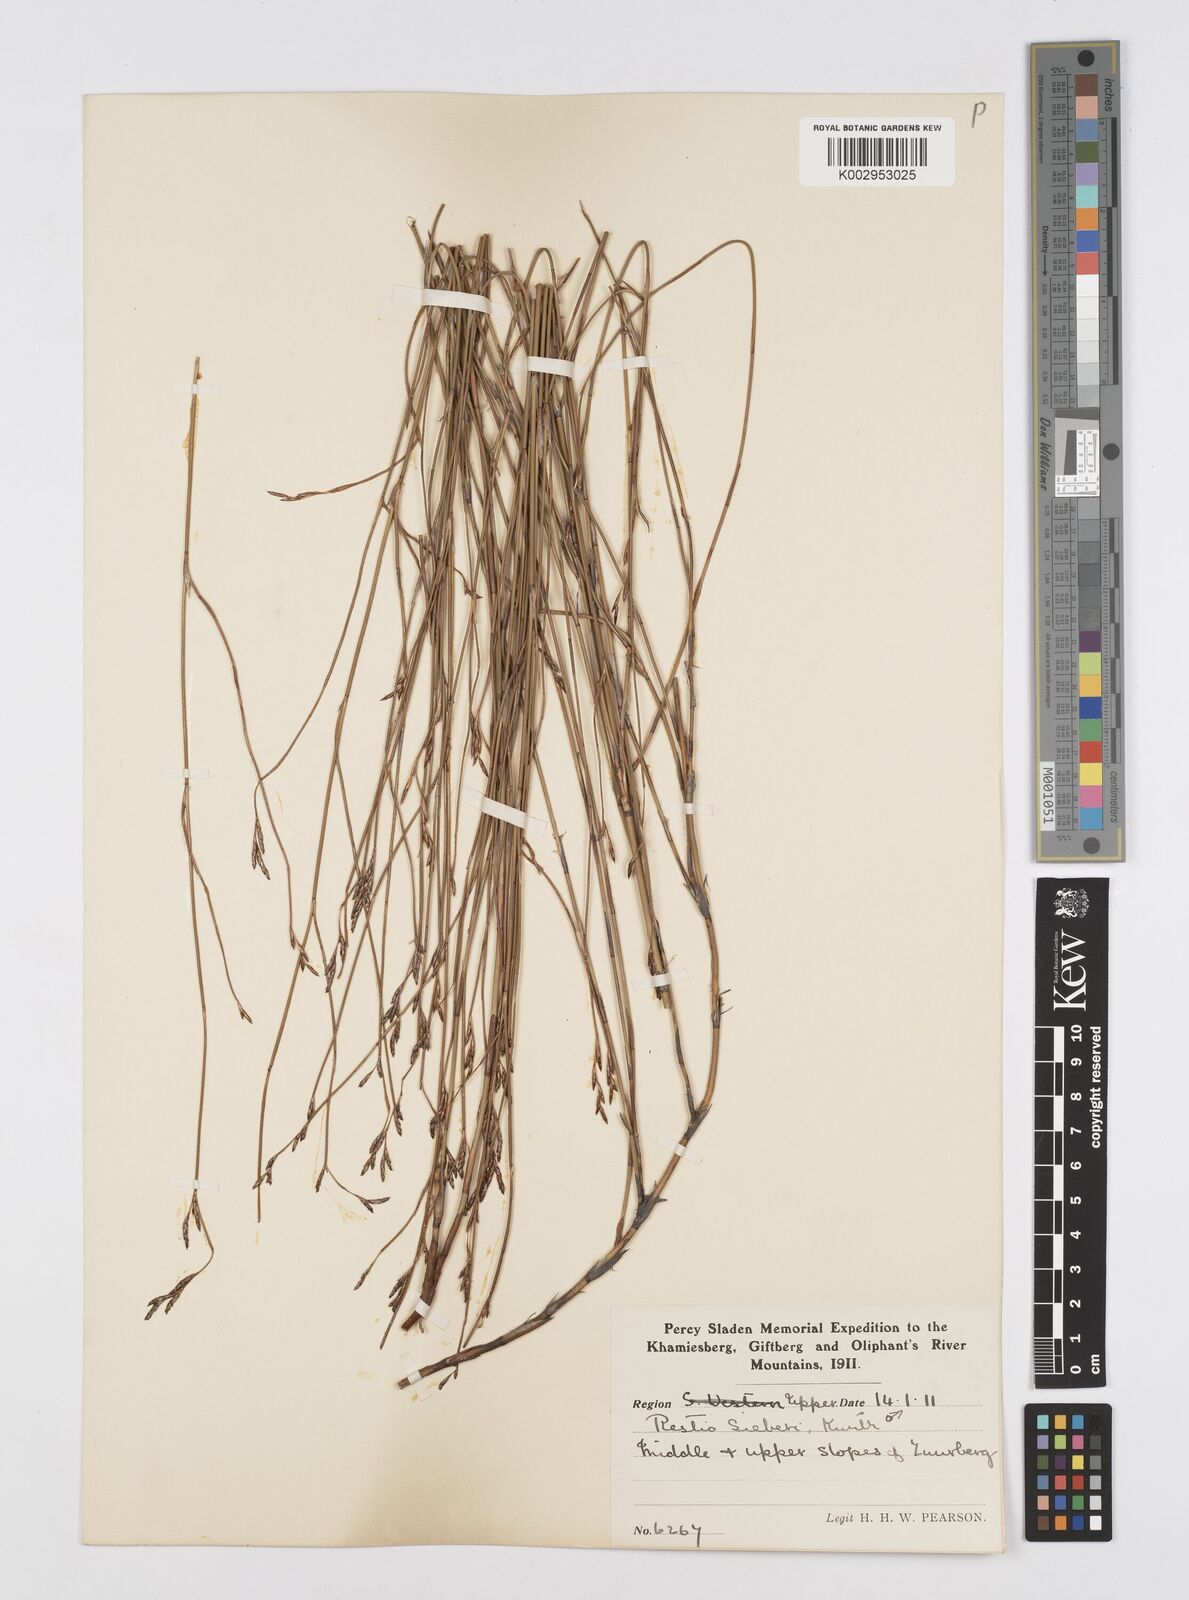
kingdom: Plantae
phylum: Tracheophyta
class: Liliopsida
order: Poales
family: Restionaceae
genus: Restio
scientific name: Restio sieberi
